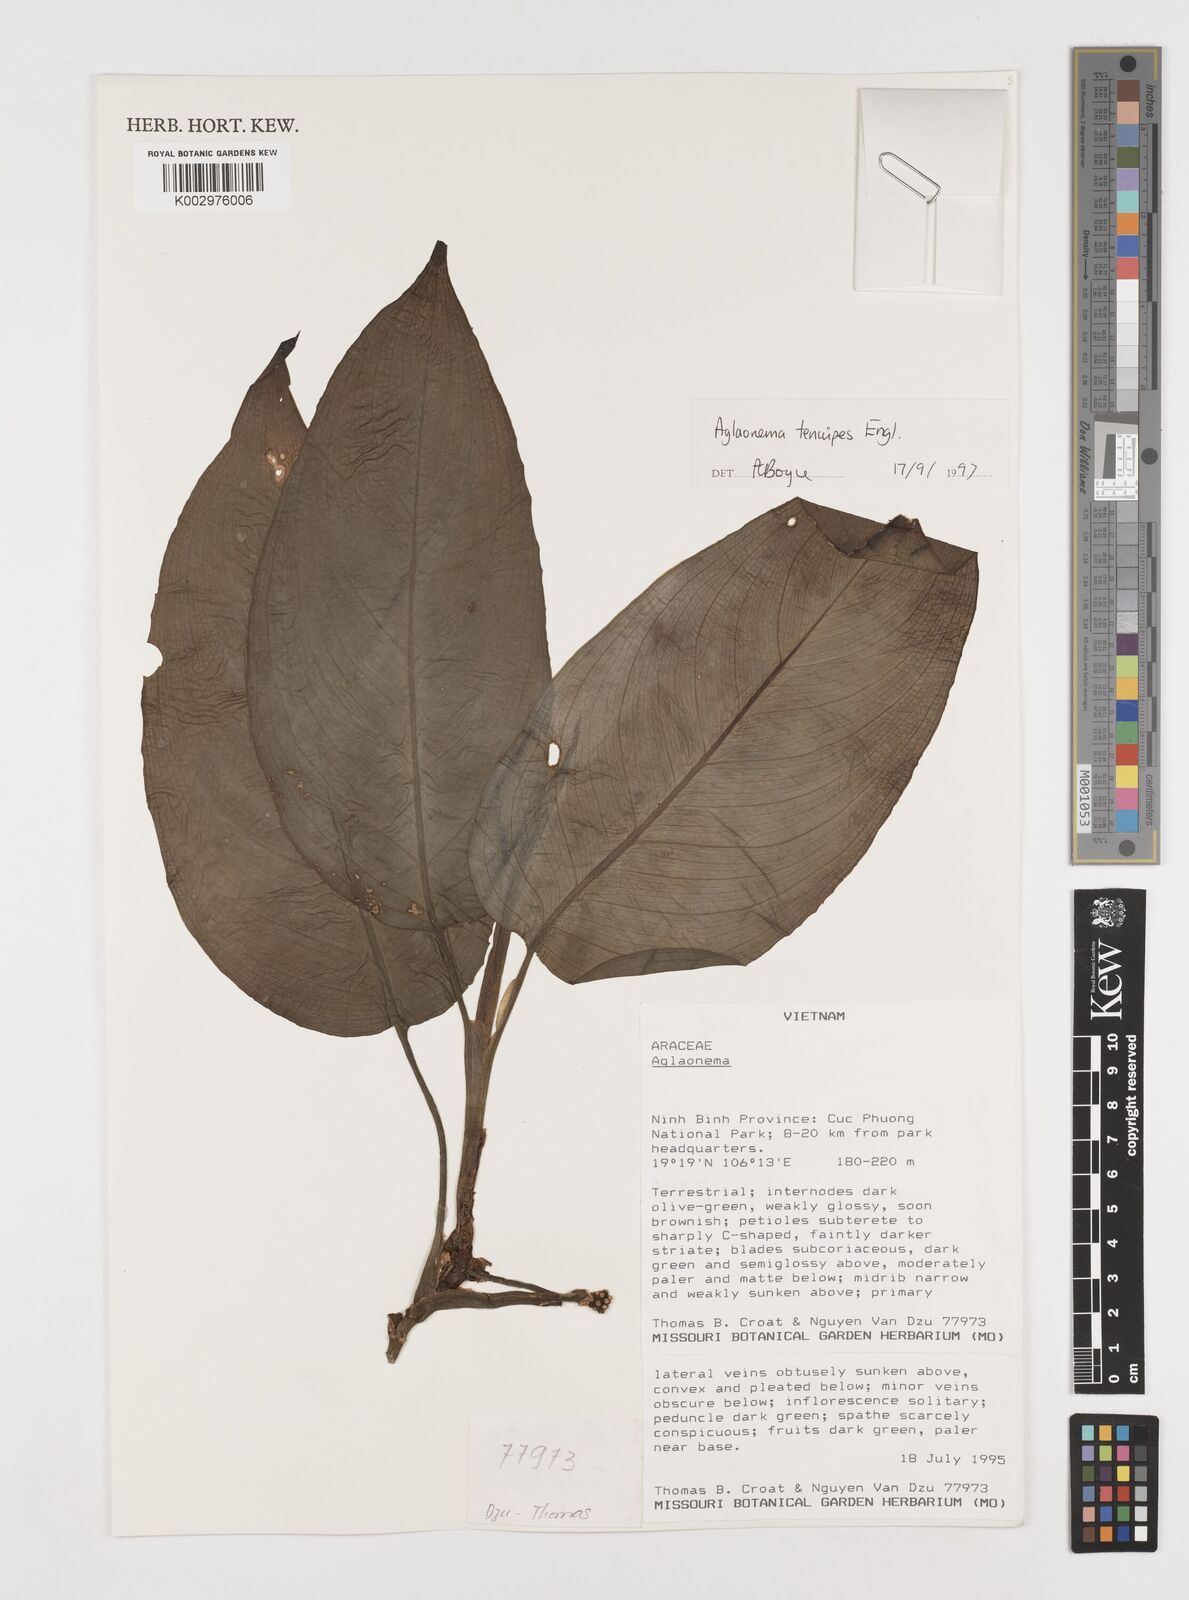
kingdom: Plantae
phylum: Tracheophyta
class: Liliopsida
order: Alismatales
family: Araceae
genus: Aglaonema
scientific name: Aglaonema simplex
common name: Malayan-sword
